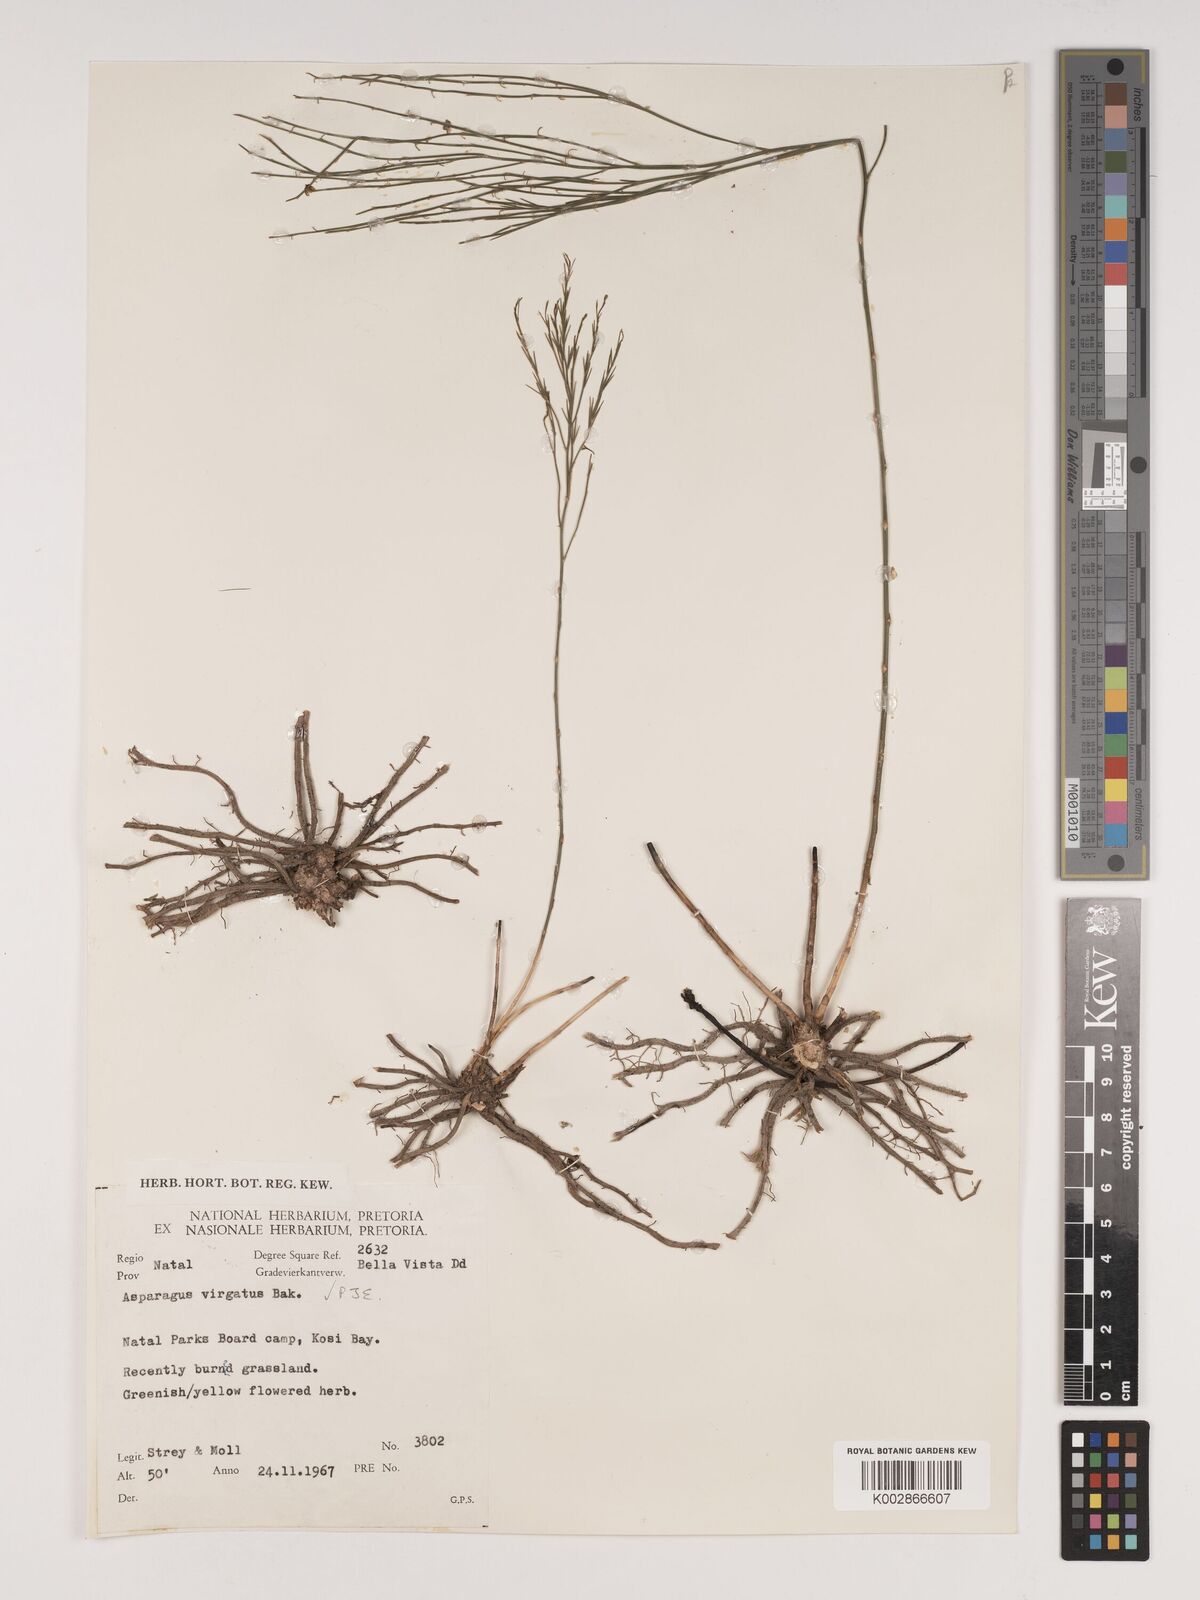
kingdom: Plantae
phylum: Tracheophyta
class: Liliopsida
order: Asparagales
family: Asparagaceae
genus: Asparagus
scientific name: Asparagus virgatus
